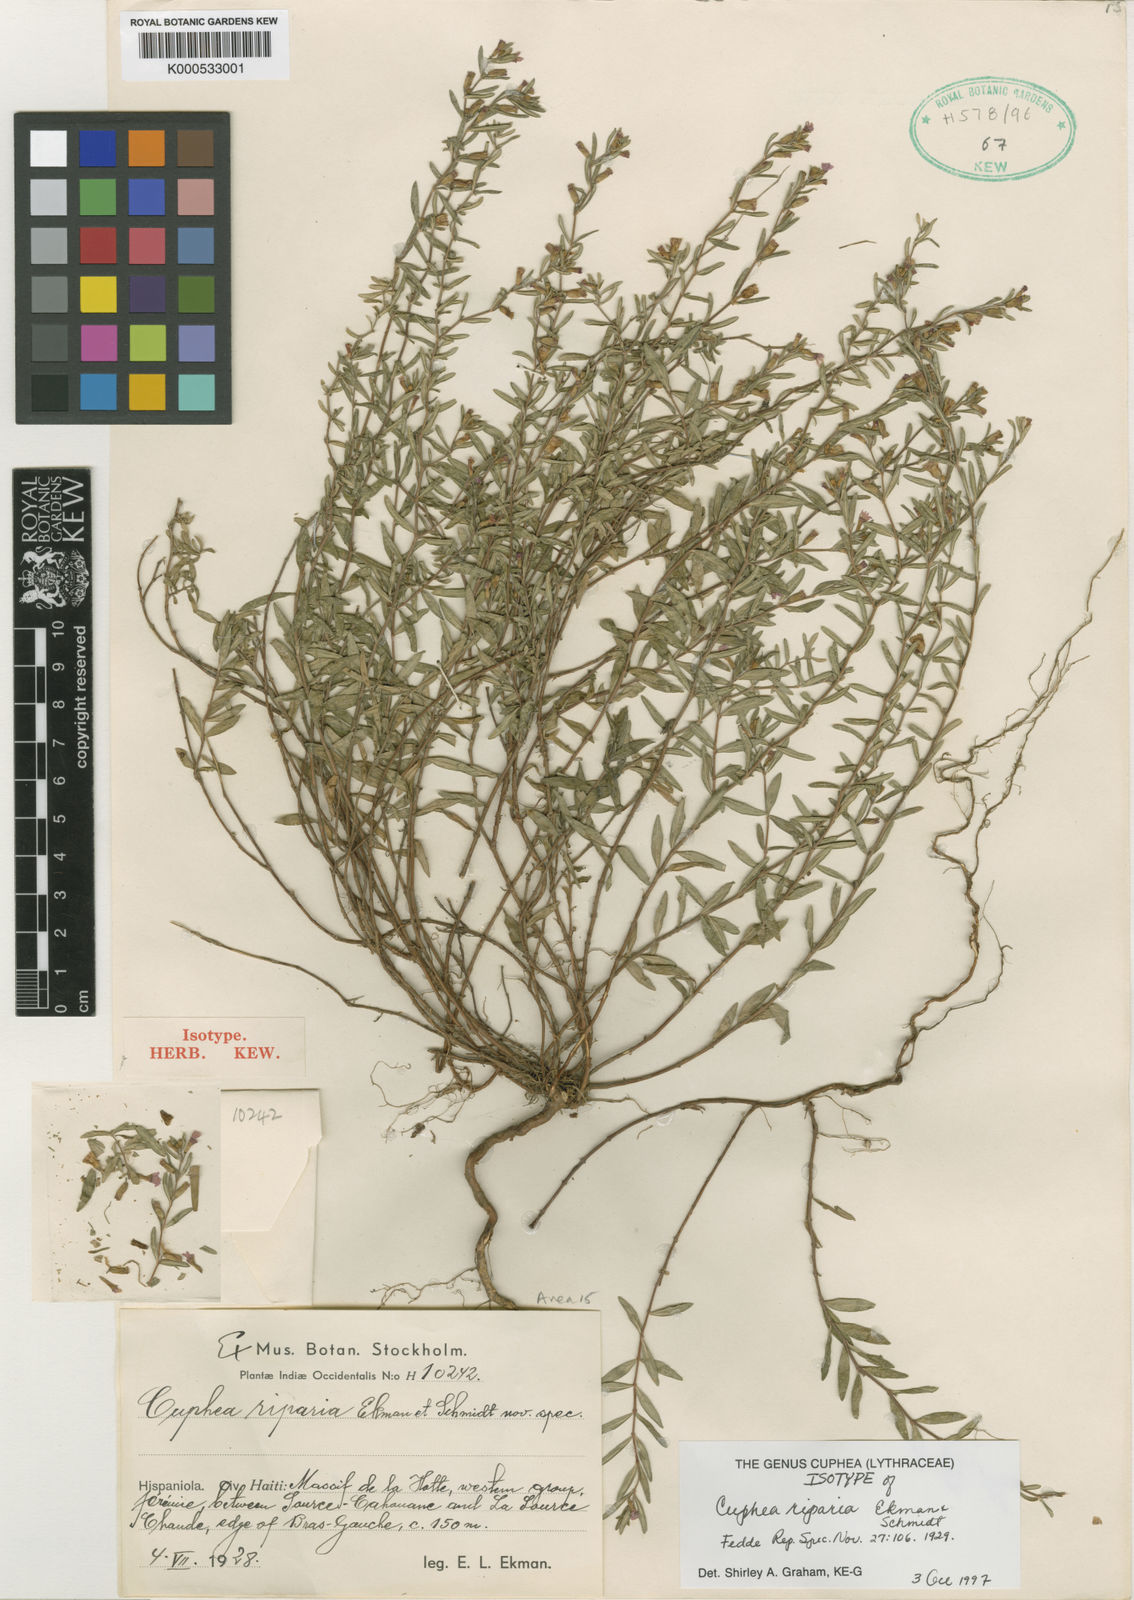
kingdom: Plantae
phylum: Tracheophyta
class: Magnoliopsida
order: Myrtales
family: Lythraceae
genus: Cuphea
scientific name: Cuphea riparia
